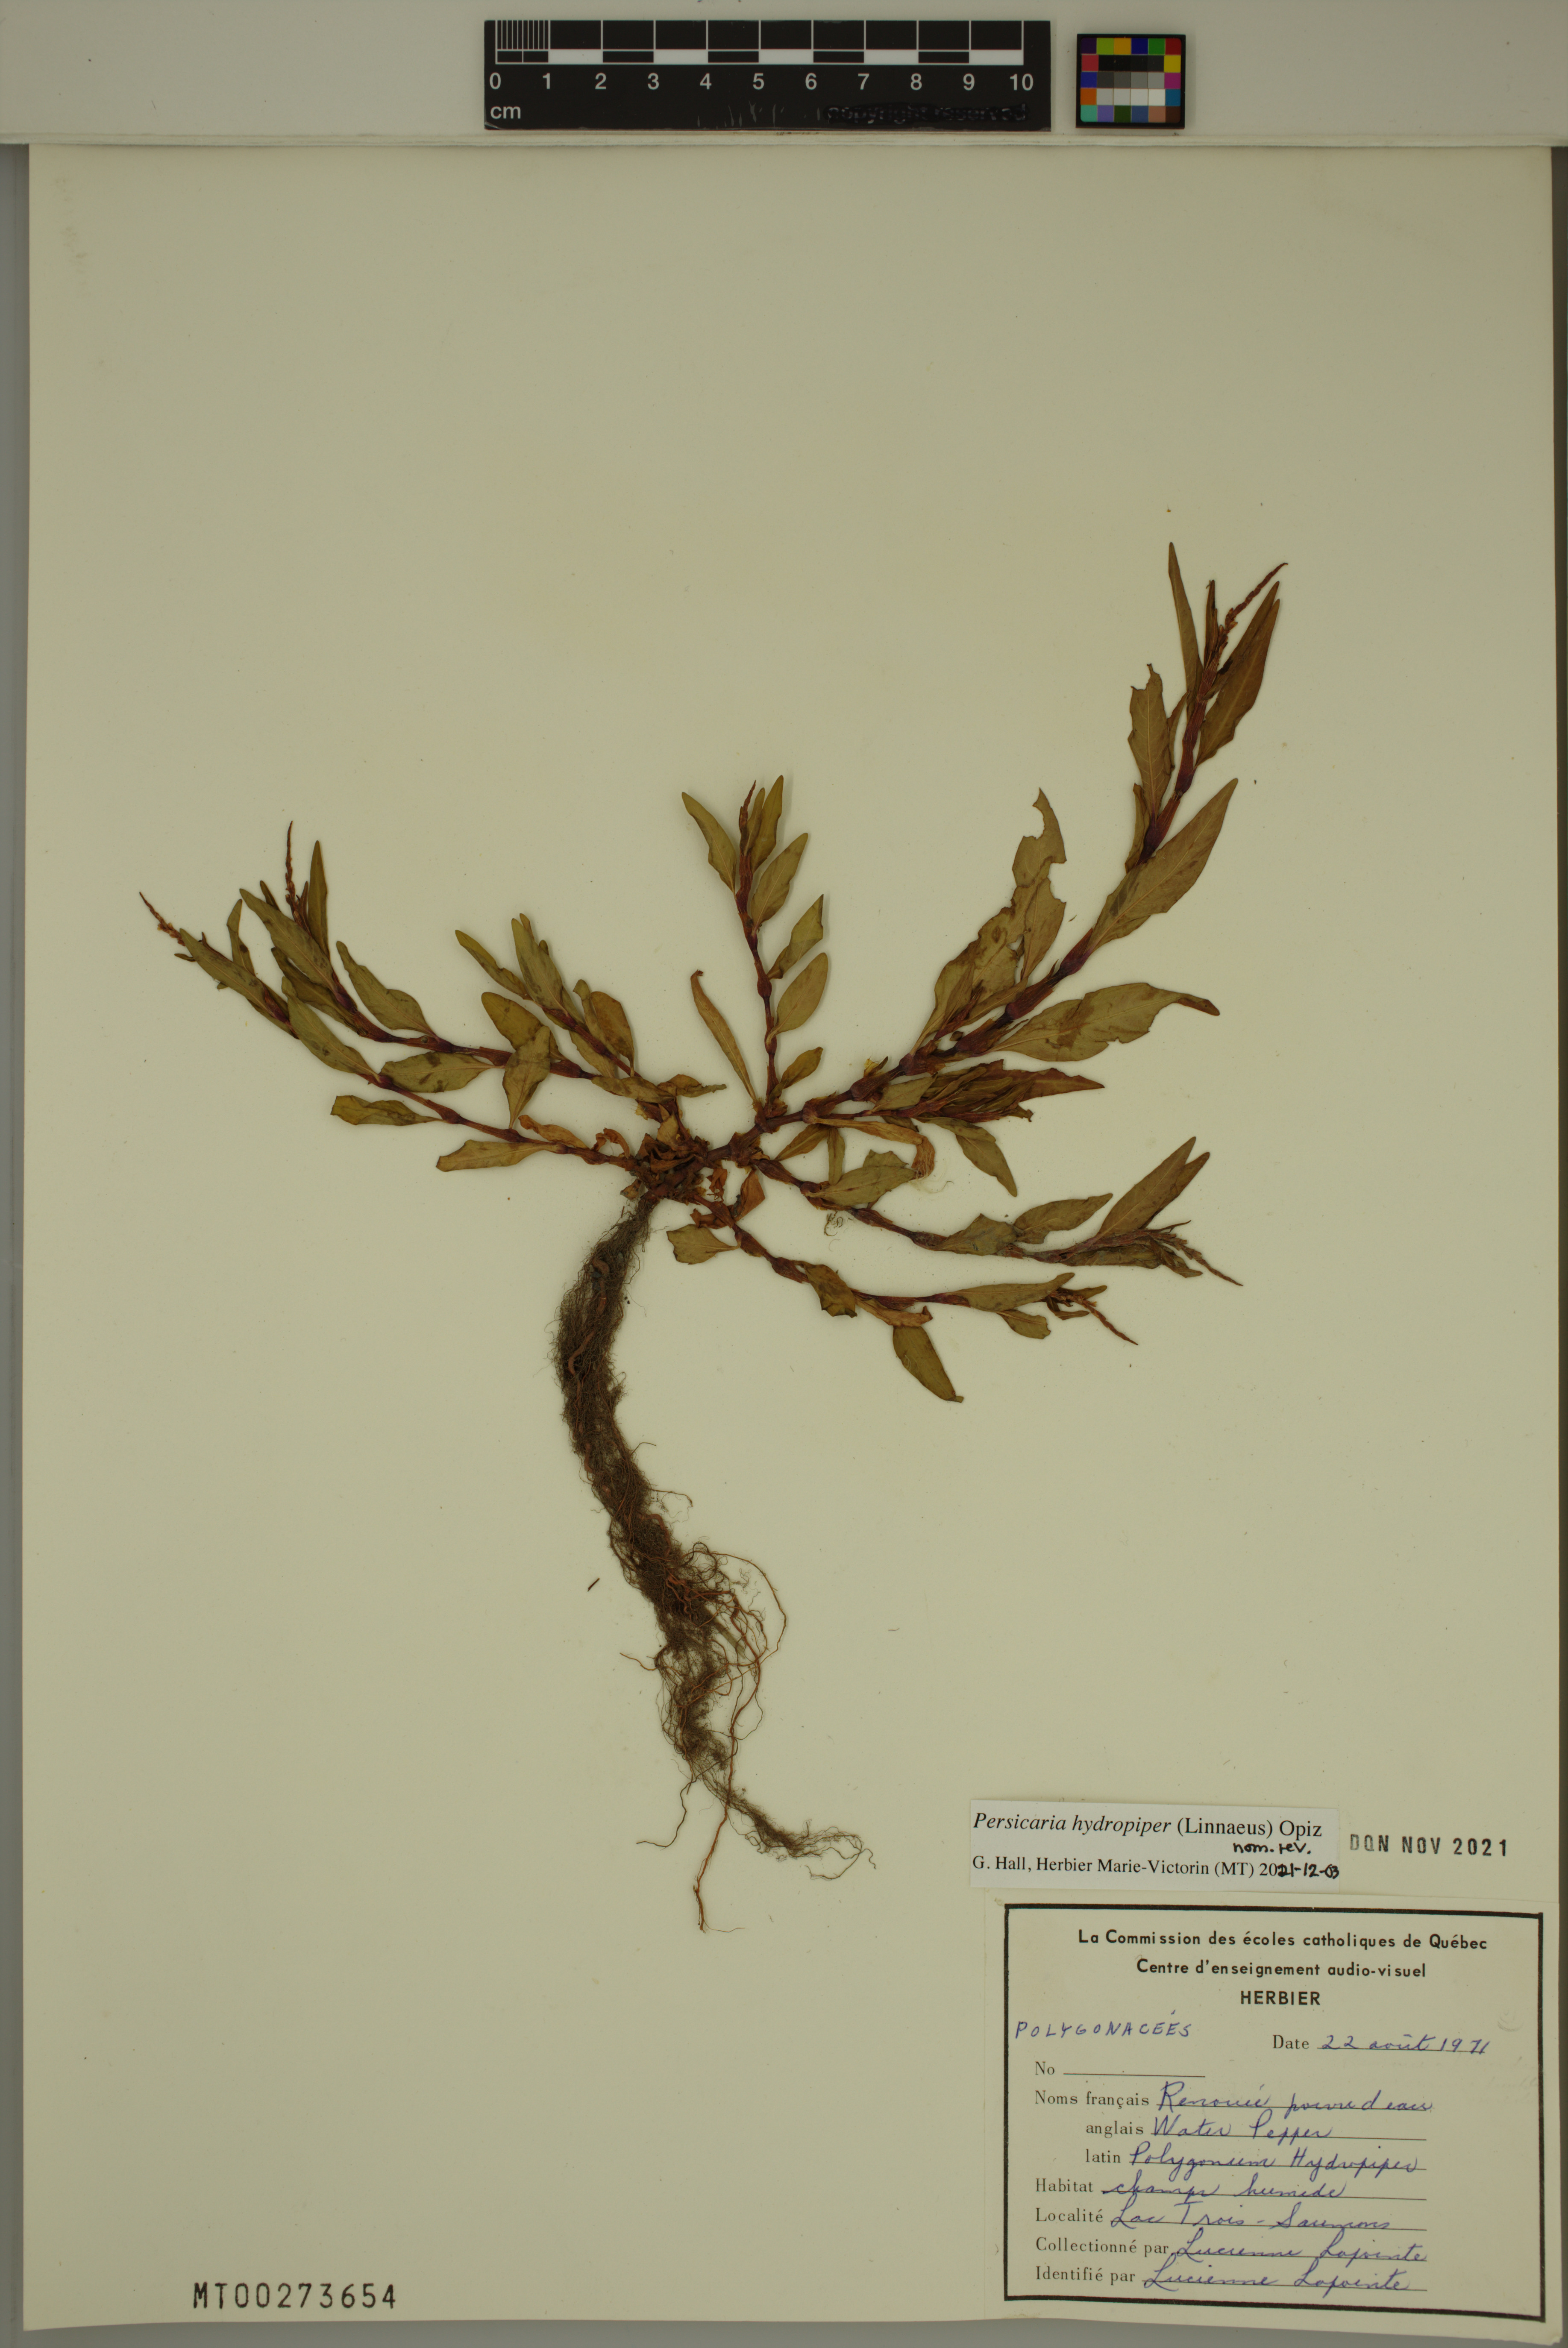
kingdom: Plantae
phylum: Tracheophyta
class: Magnoliopsida
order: Caryophyllales
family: Polygonaceae
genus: Persicaria
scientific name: Persicaria hydropiper
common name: Water-pepper
